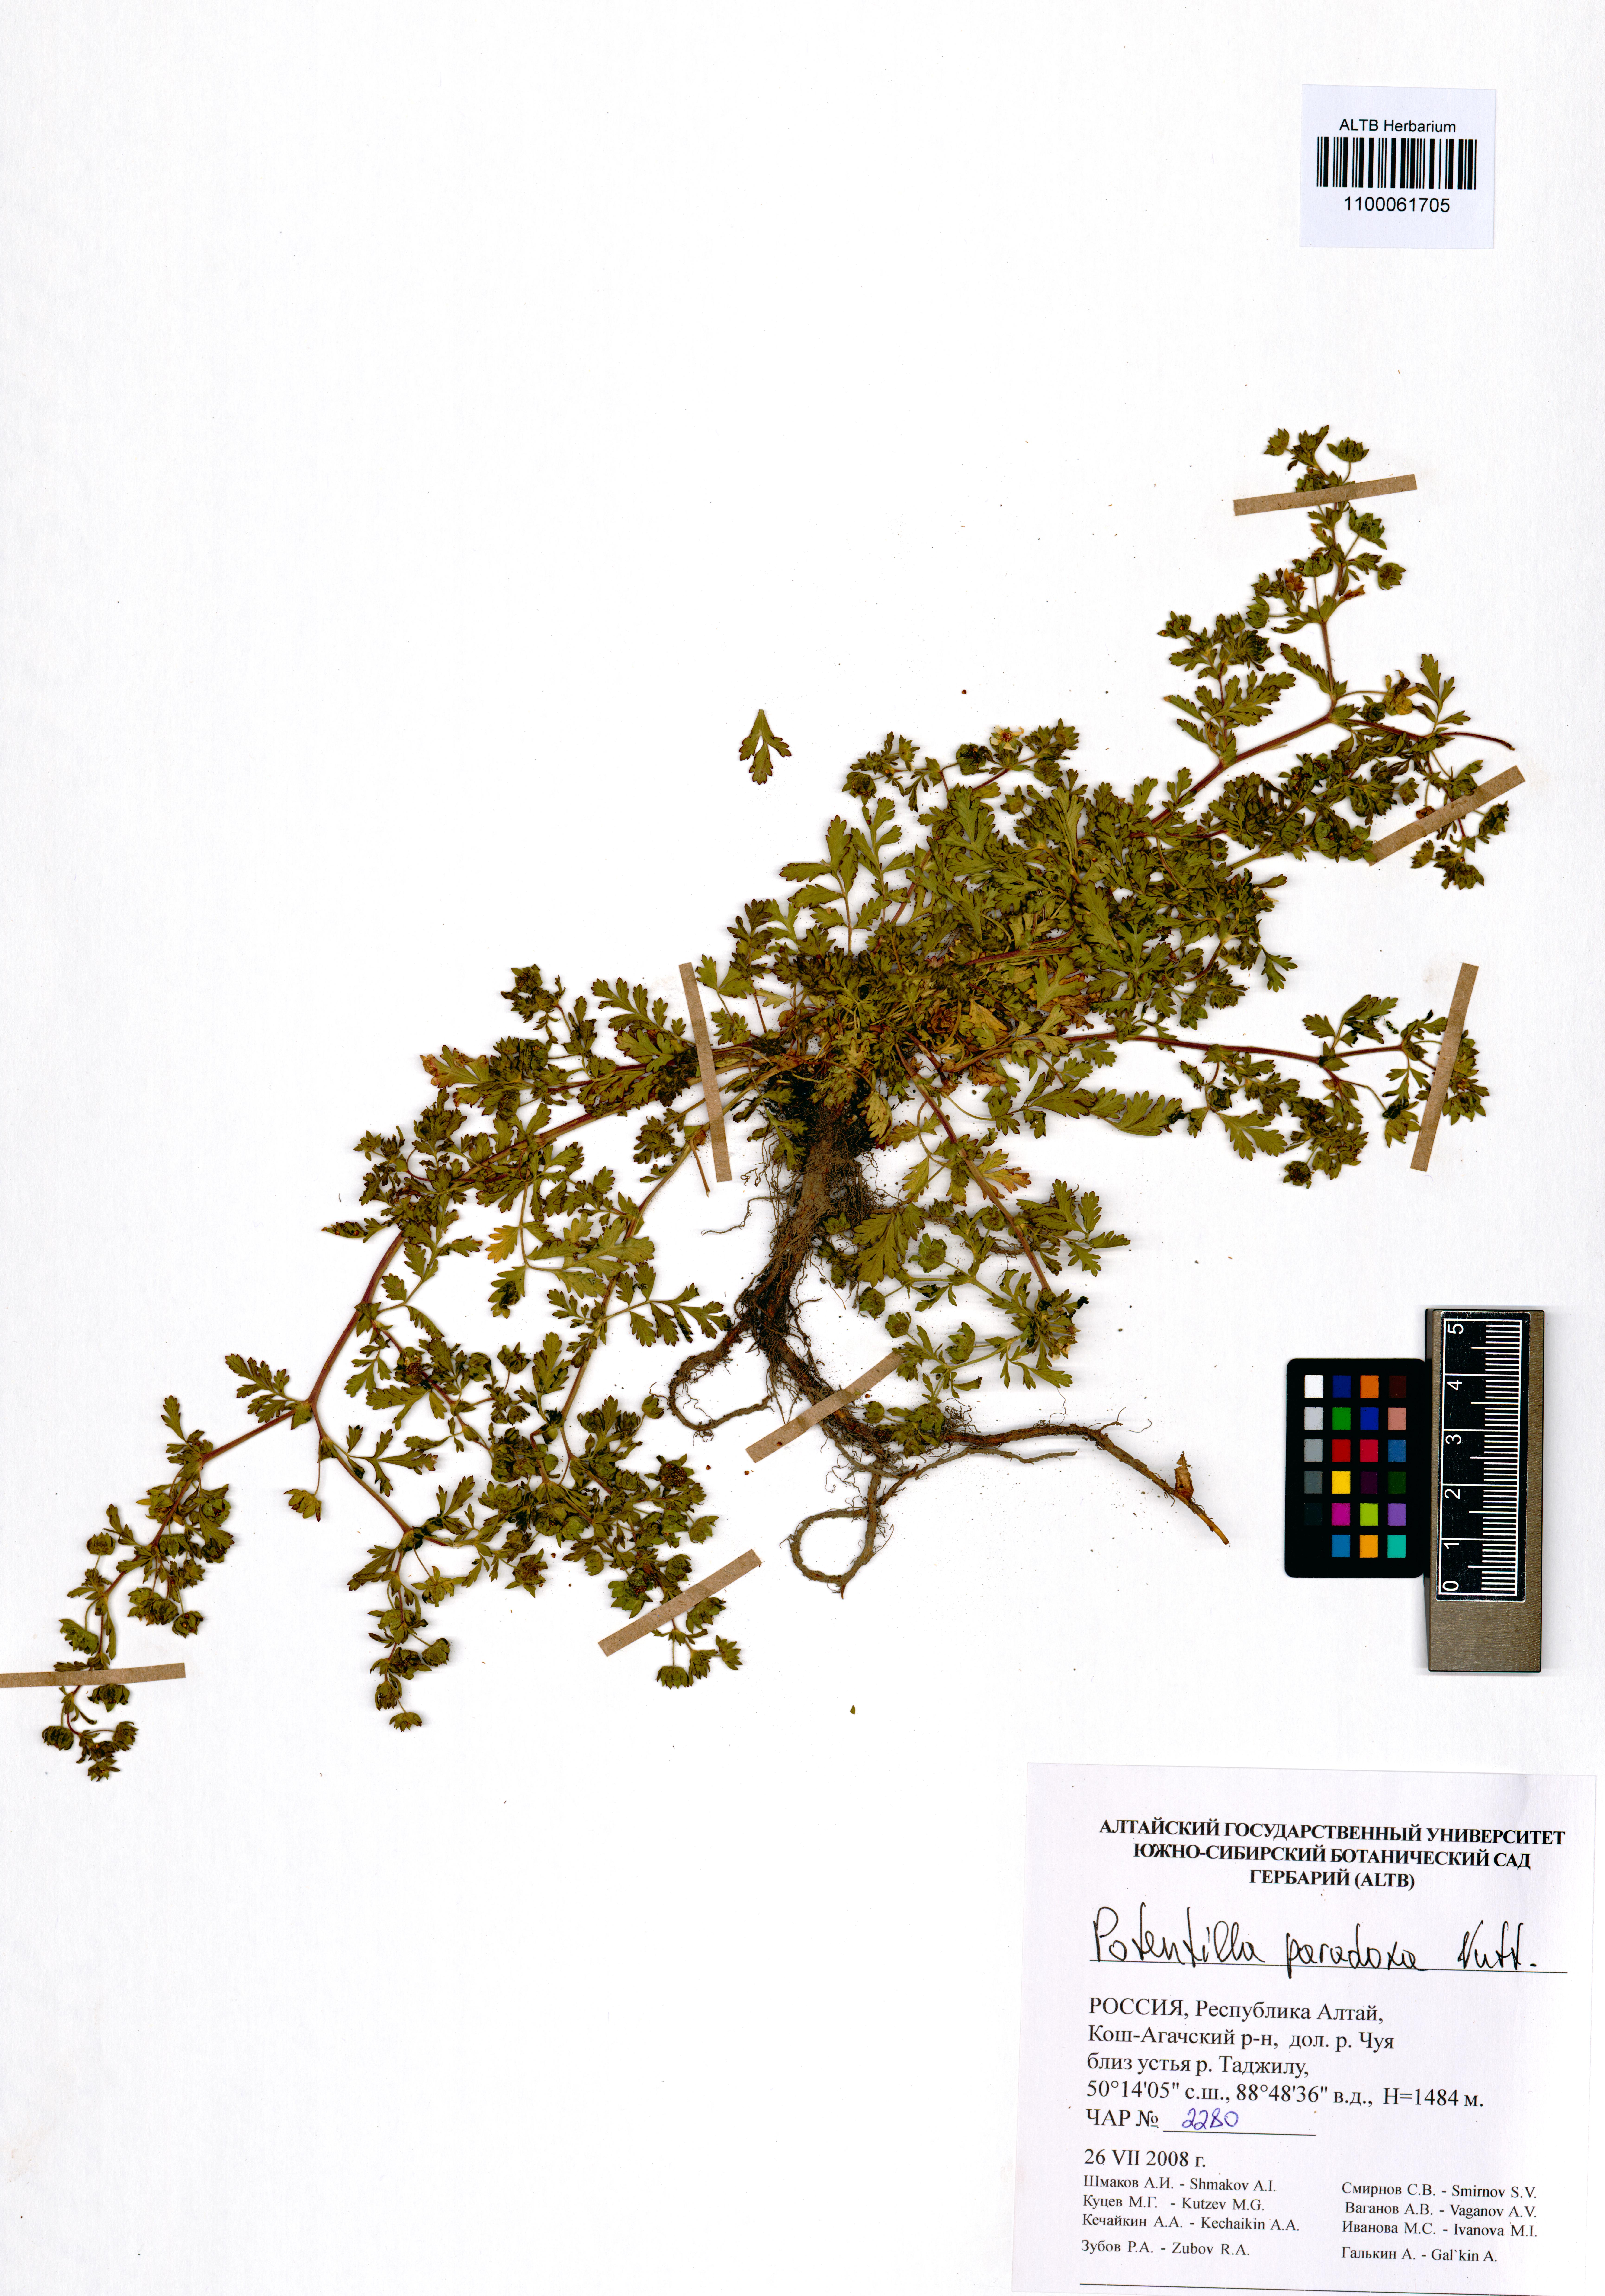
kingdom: Plantae
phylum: Tracheophyta
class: Magnoliopsida
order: Rosales
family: Rosaceae
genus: Potentilla
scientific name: Potentilla supina
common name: Prostrate cinquefoil
